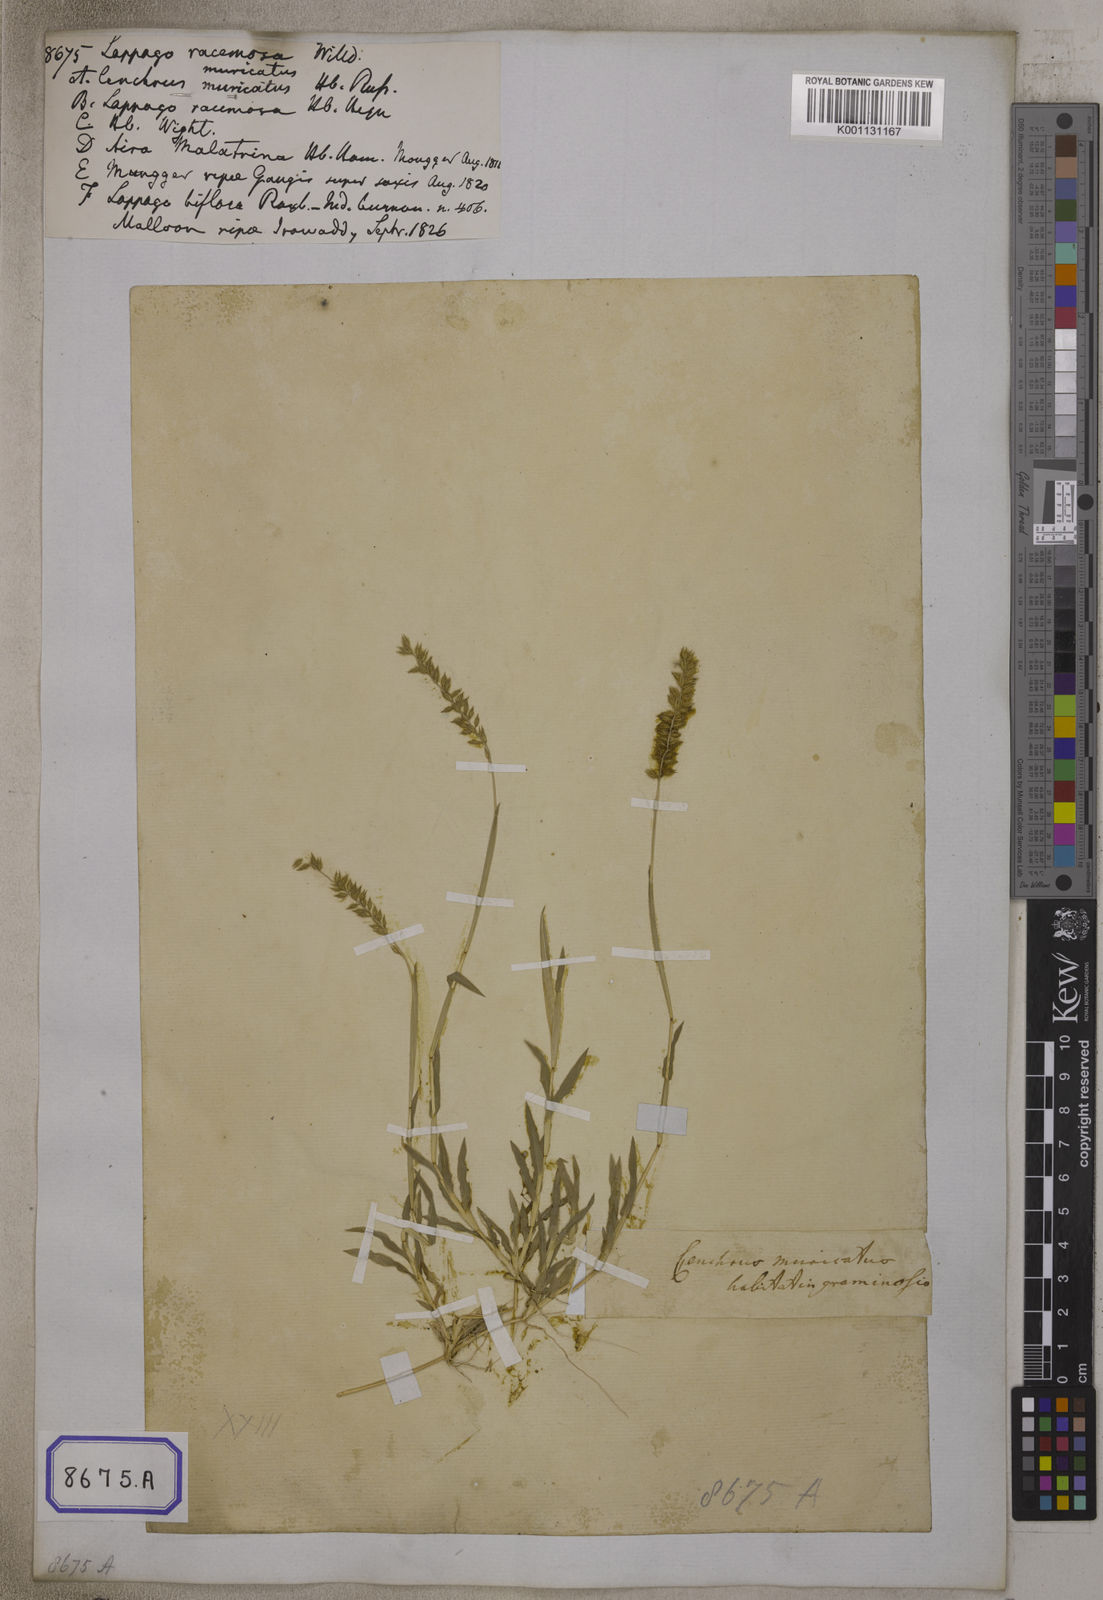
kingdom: Plantae
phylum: Tracheophyta
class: Liliopsida
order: Poales
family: Poaceae
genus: Tragus
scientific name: Tragus racemosus
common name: European bur-grass
